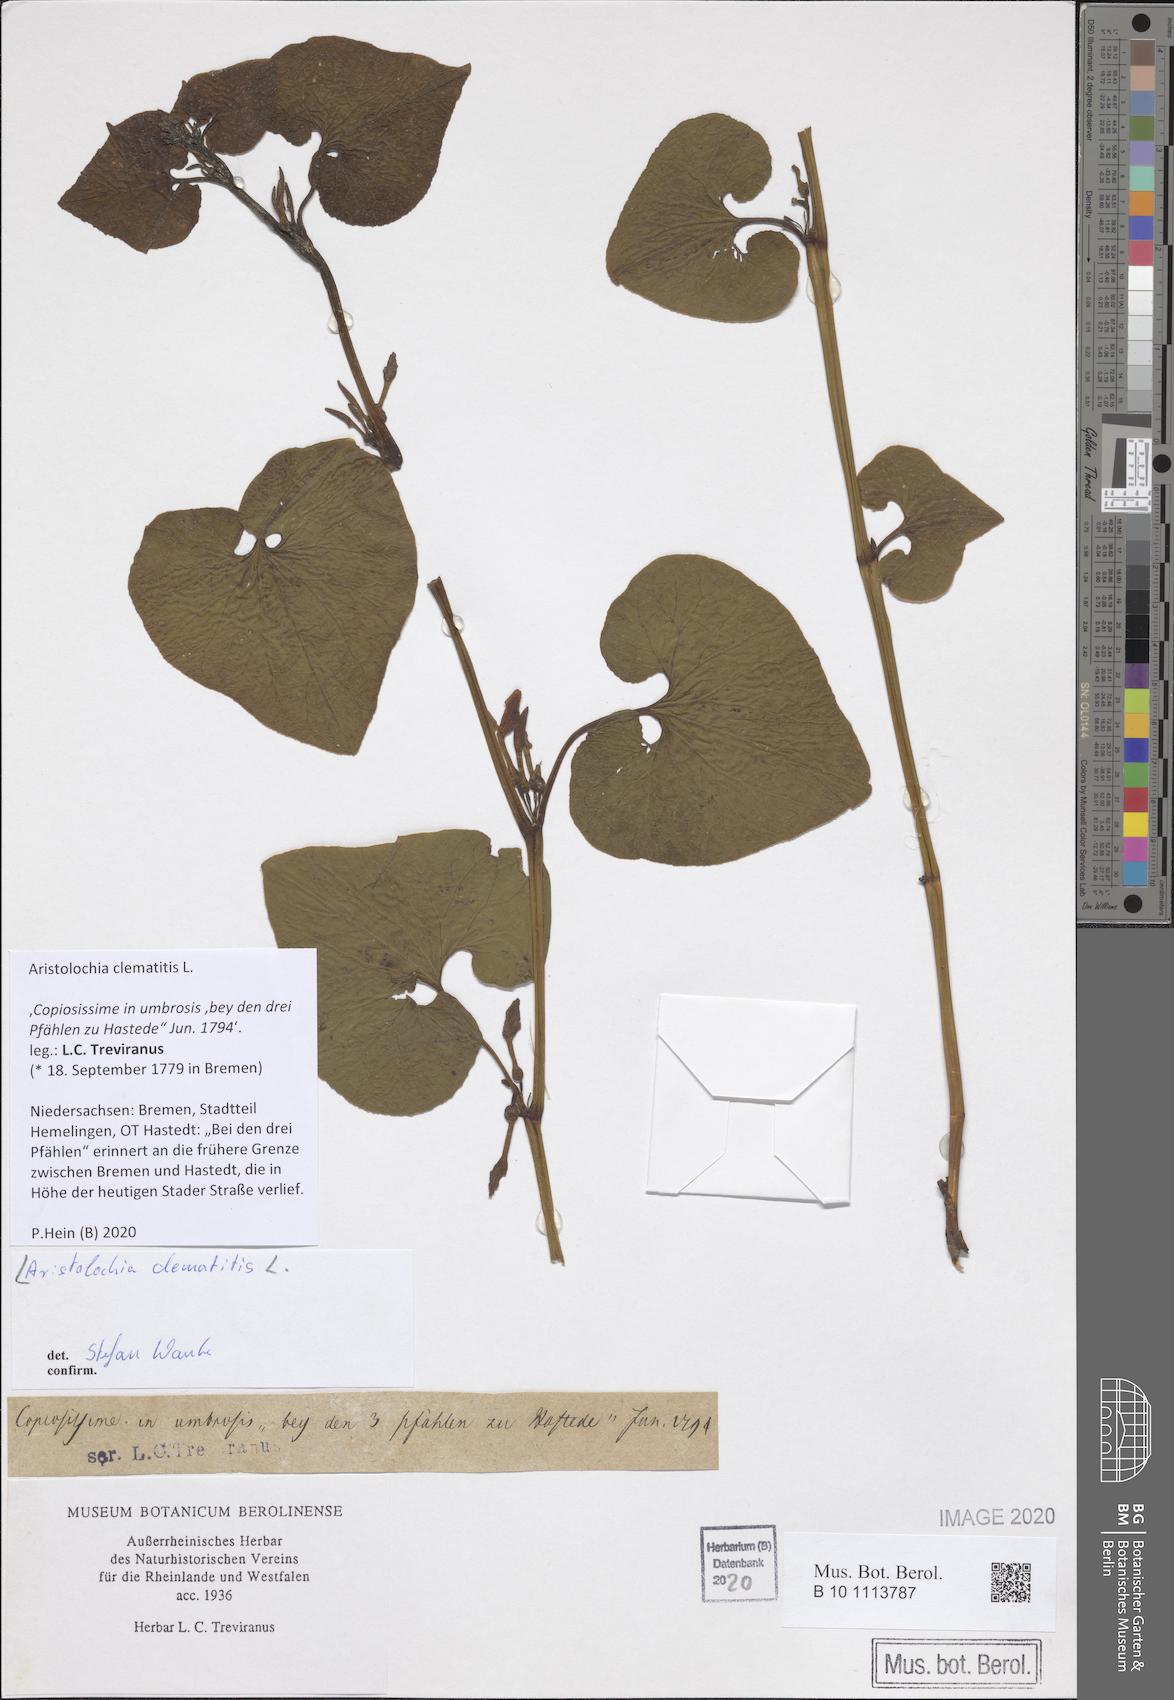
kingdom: Plantae
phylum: Tracheophyta
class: Magnoliopsida
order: Piperales
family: Aristolochiaceae
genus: Aristolochia
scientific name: Aristolochia clematitis
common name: Birthwort
